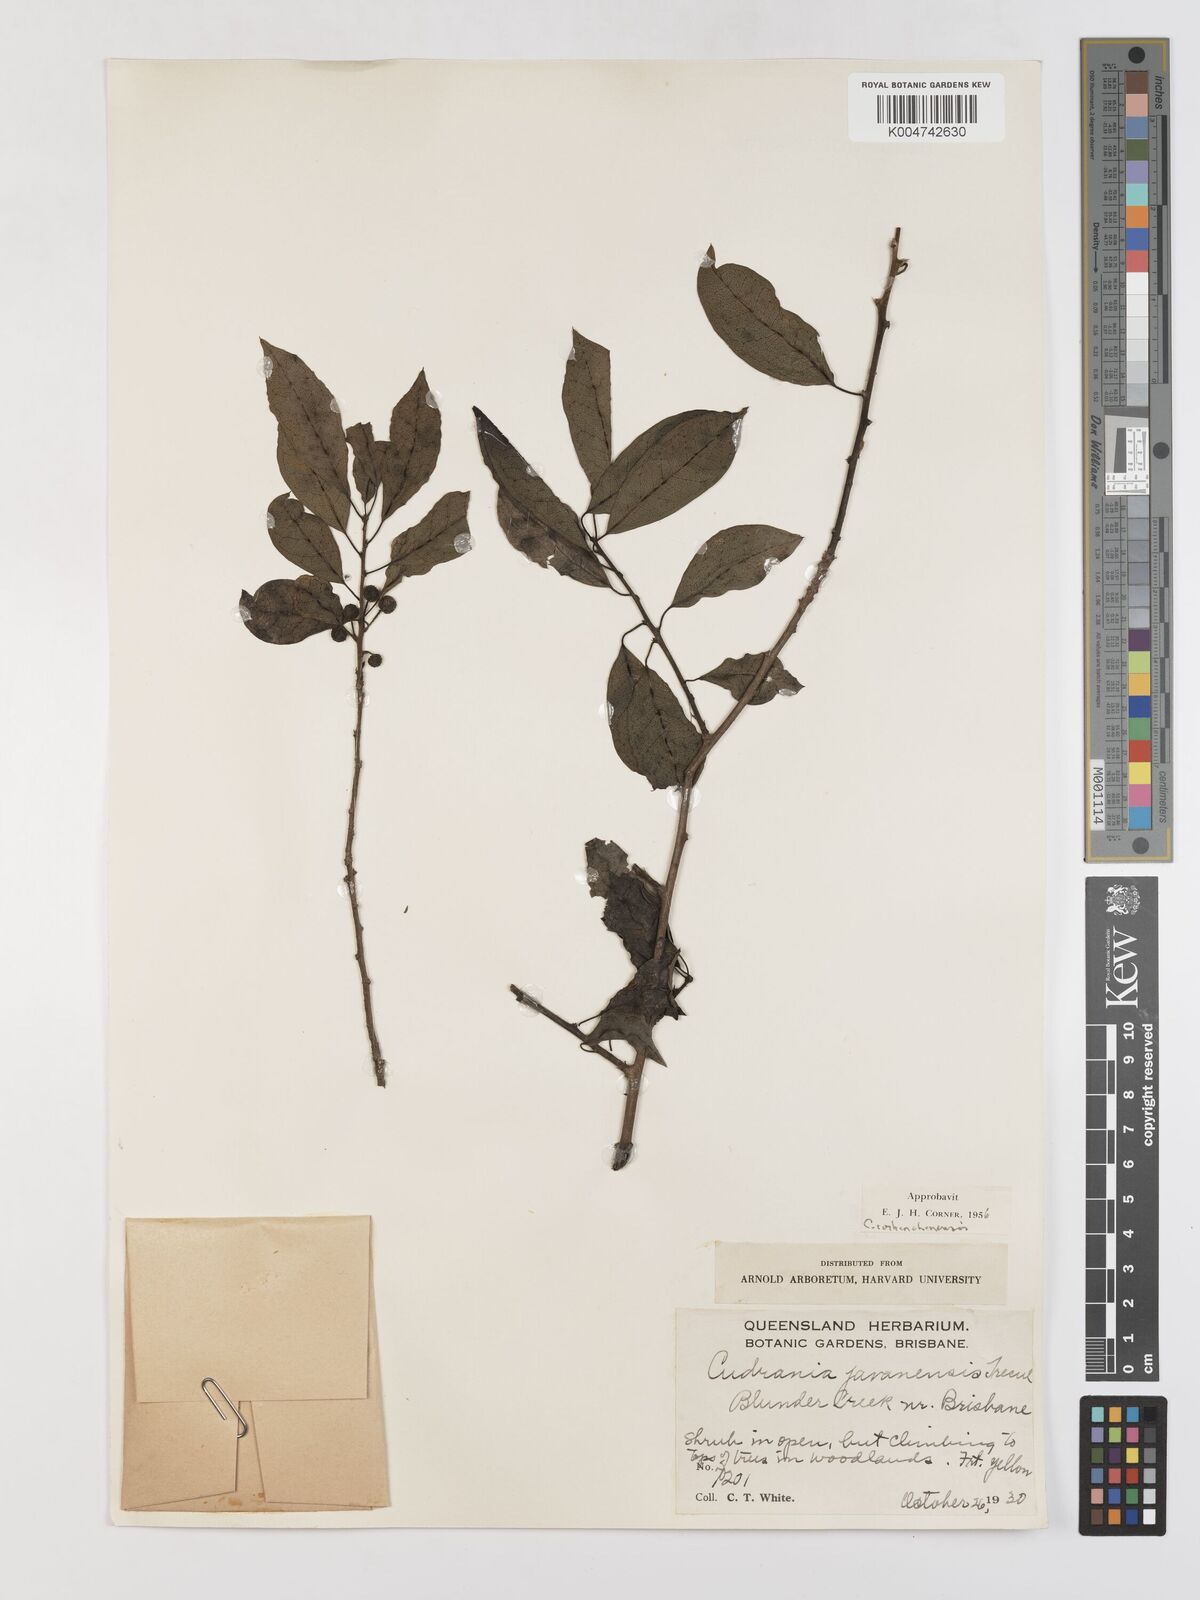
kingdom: Plantae
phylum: Tracheophyta
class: Magnoliopsida
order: Rosales
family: Moraceae
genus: Maclura
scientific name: Maclura cochinchinensis
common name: Cockspurthorn
